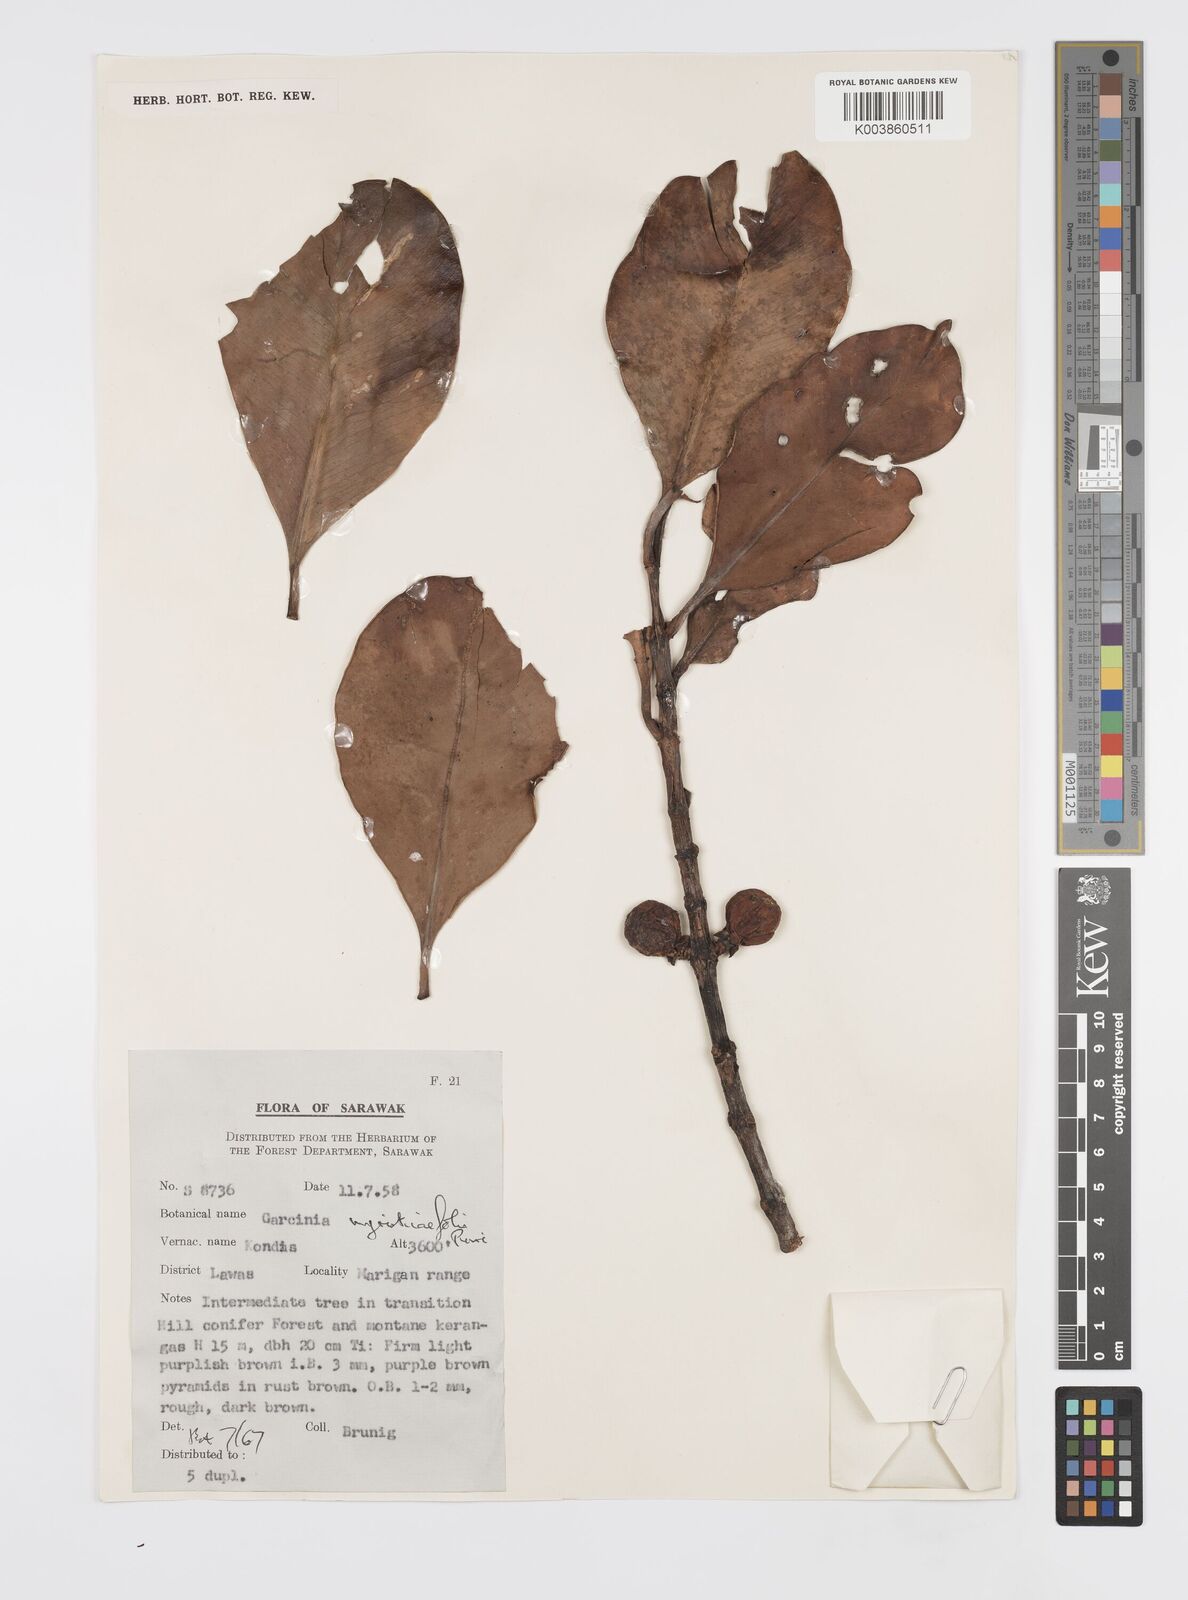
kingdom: Plantae
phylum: Tracheophyta
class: Magnoliopsida
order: Malpighiales
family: Clusiaceae
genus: Garcinia
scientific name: Garcinia myristicifolia
